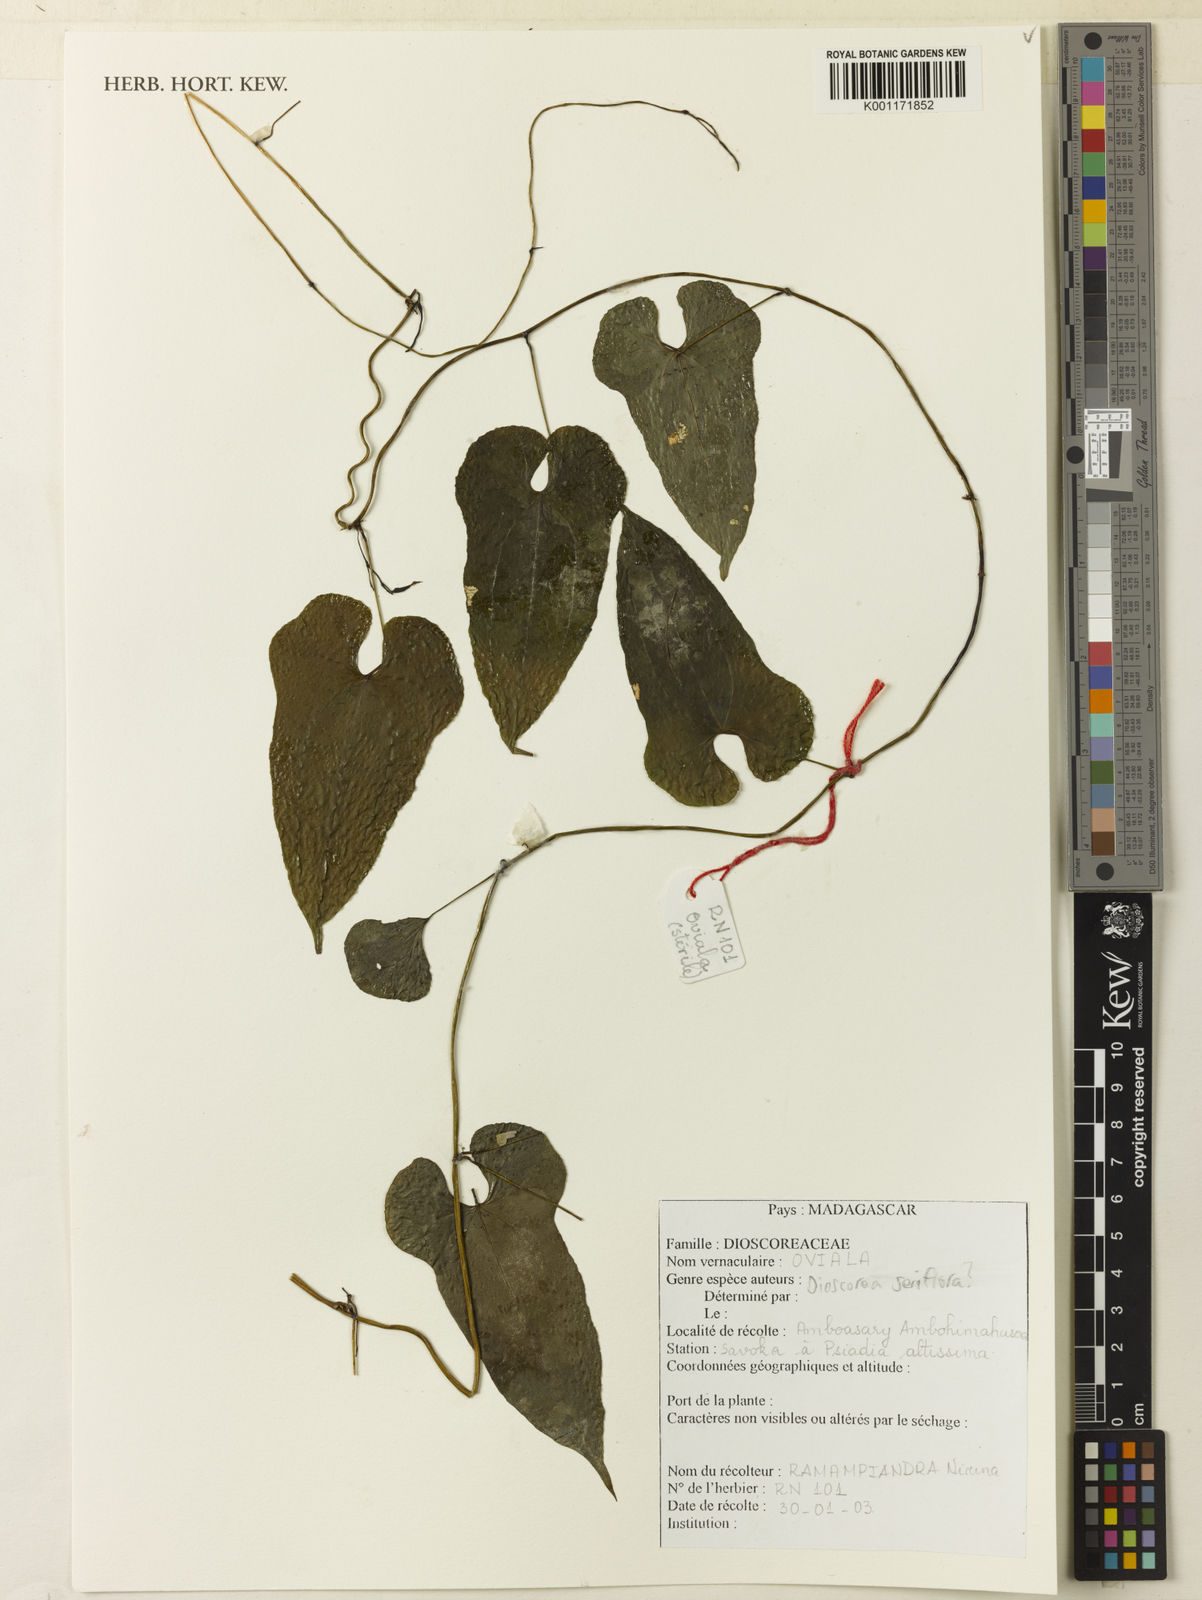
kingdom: Plantae
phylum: Tracheophyta
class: Liliopsida
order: Dioscoreales
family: Dioscoreaceae
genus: Dioscorea
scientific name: Dioscorea seriflora
